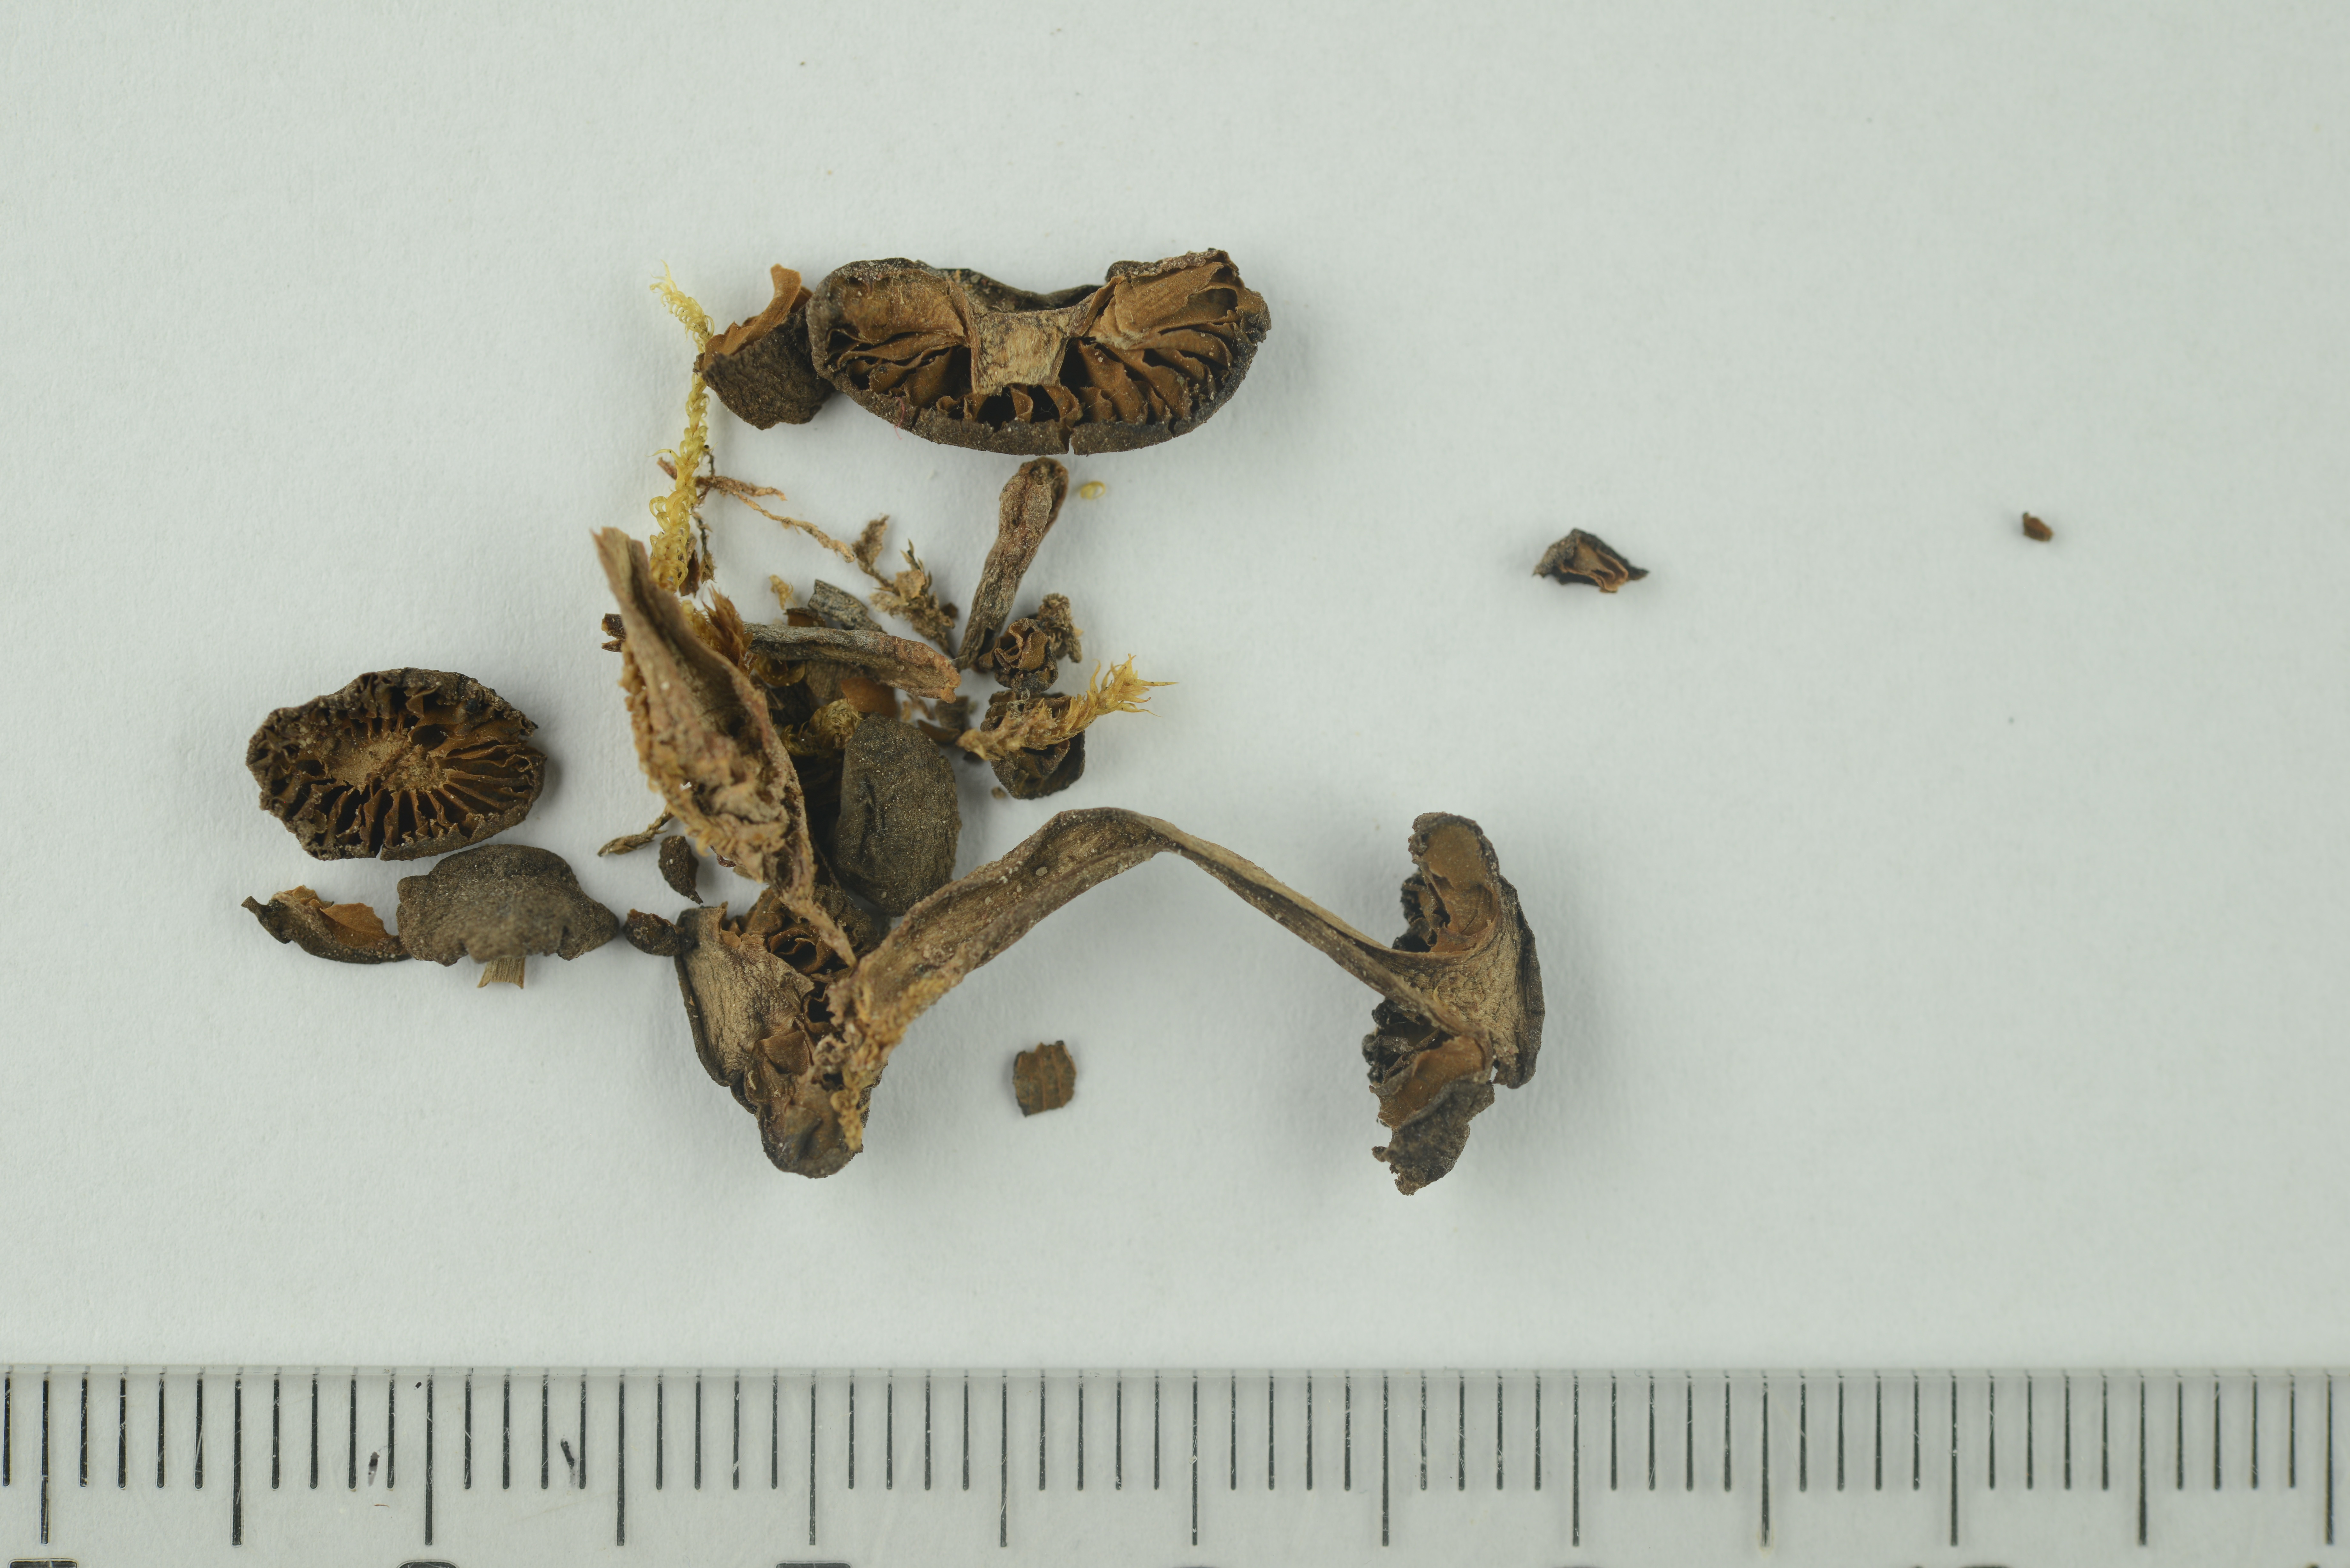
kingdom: Fungi
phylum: Basidiomycota
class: Agaricomycetes
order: Agaricales
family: Cortinariaceae
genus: Cortinarius
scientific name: Cortinarius
